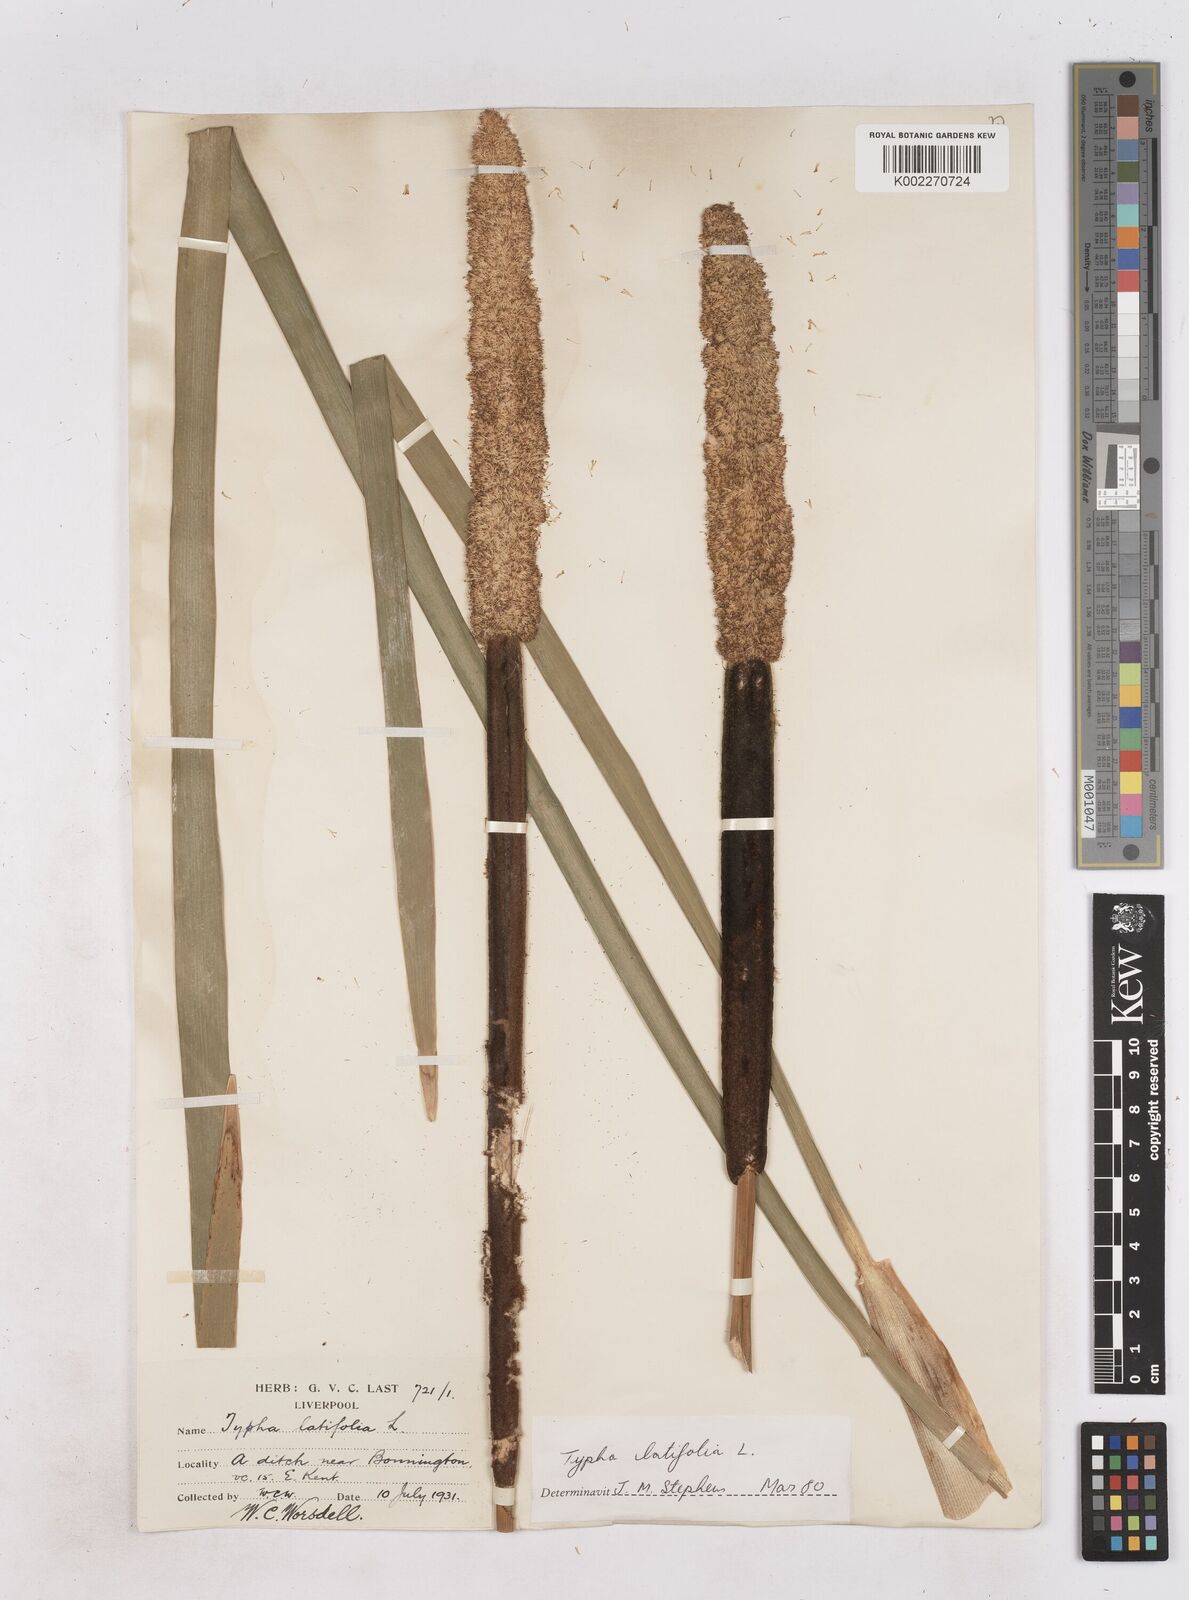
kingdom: Plantae
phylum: Tracheophyta
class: Liliopsida
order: Poales
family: Typhaceae
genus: Typha
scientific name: Typha latifolia
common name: Broadleaf cattail
